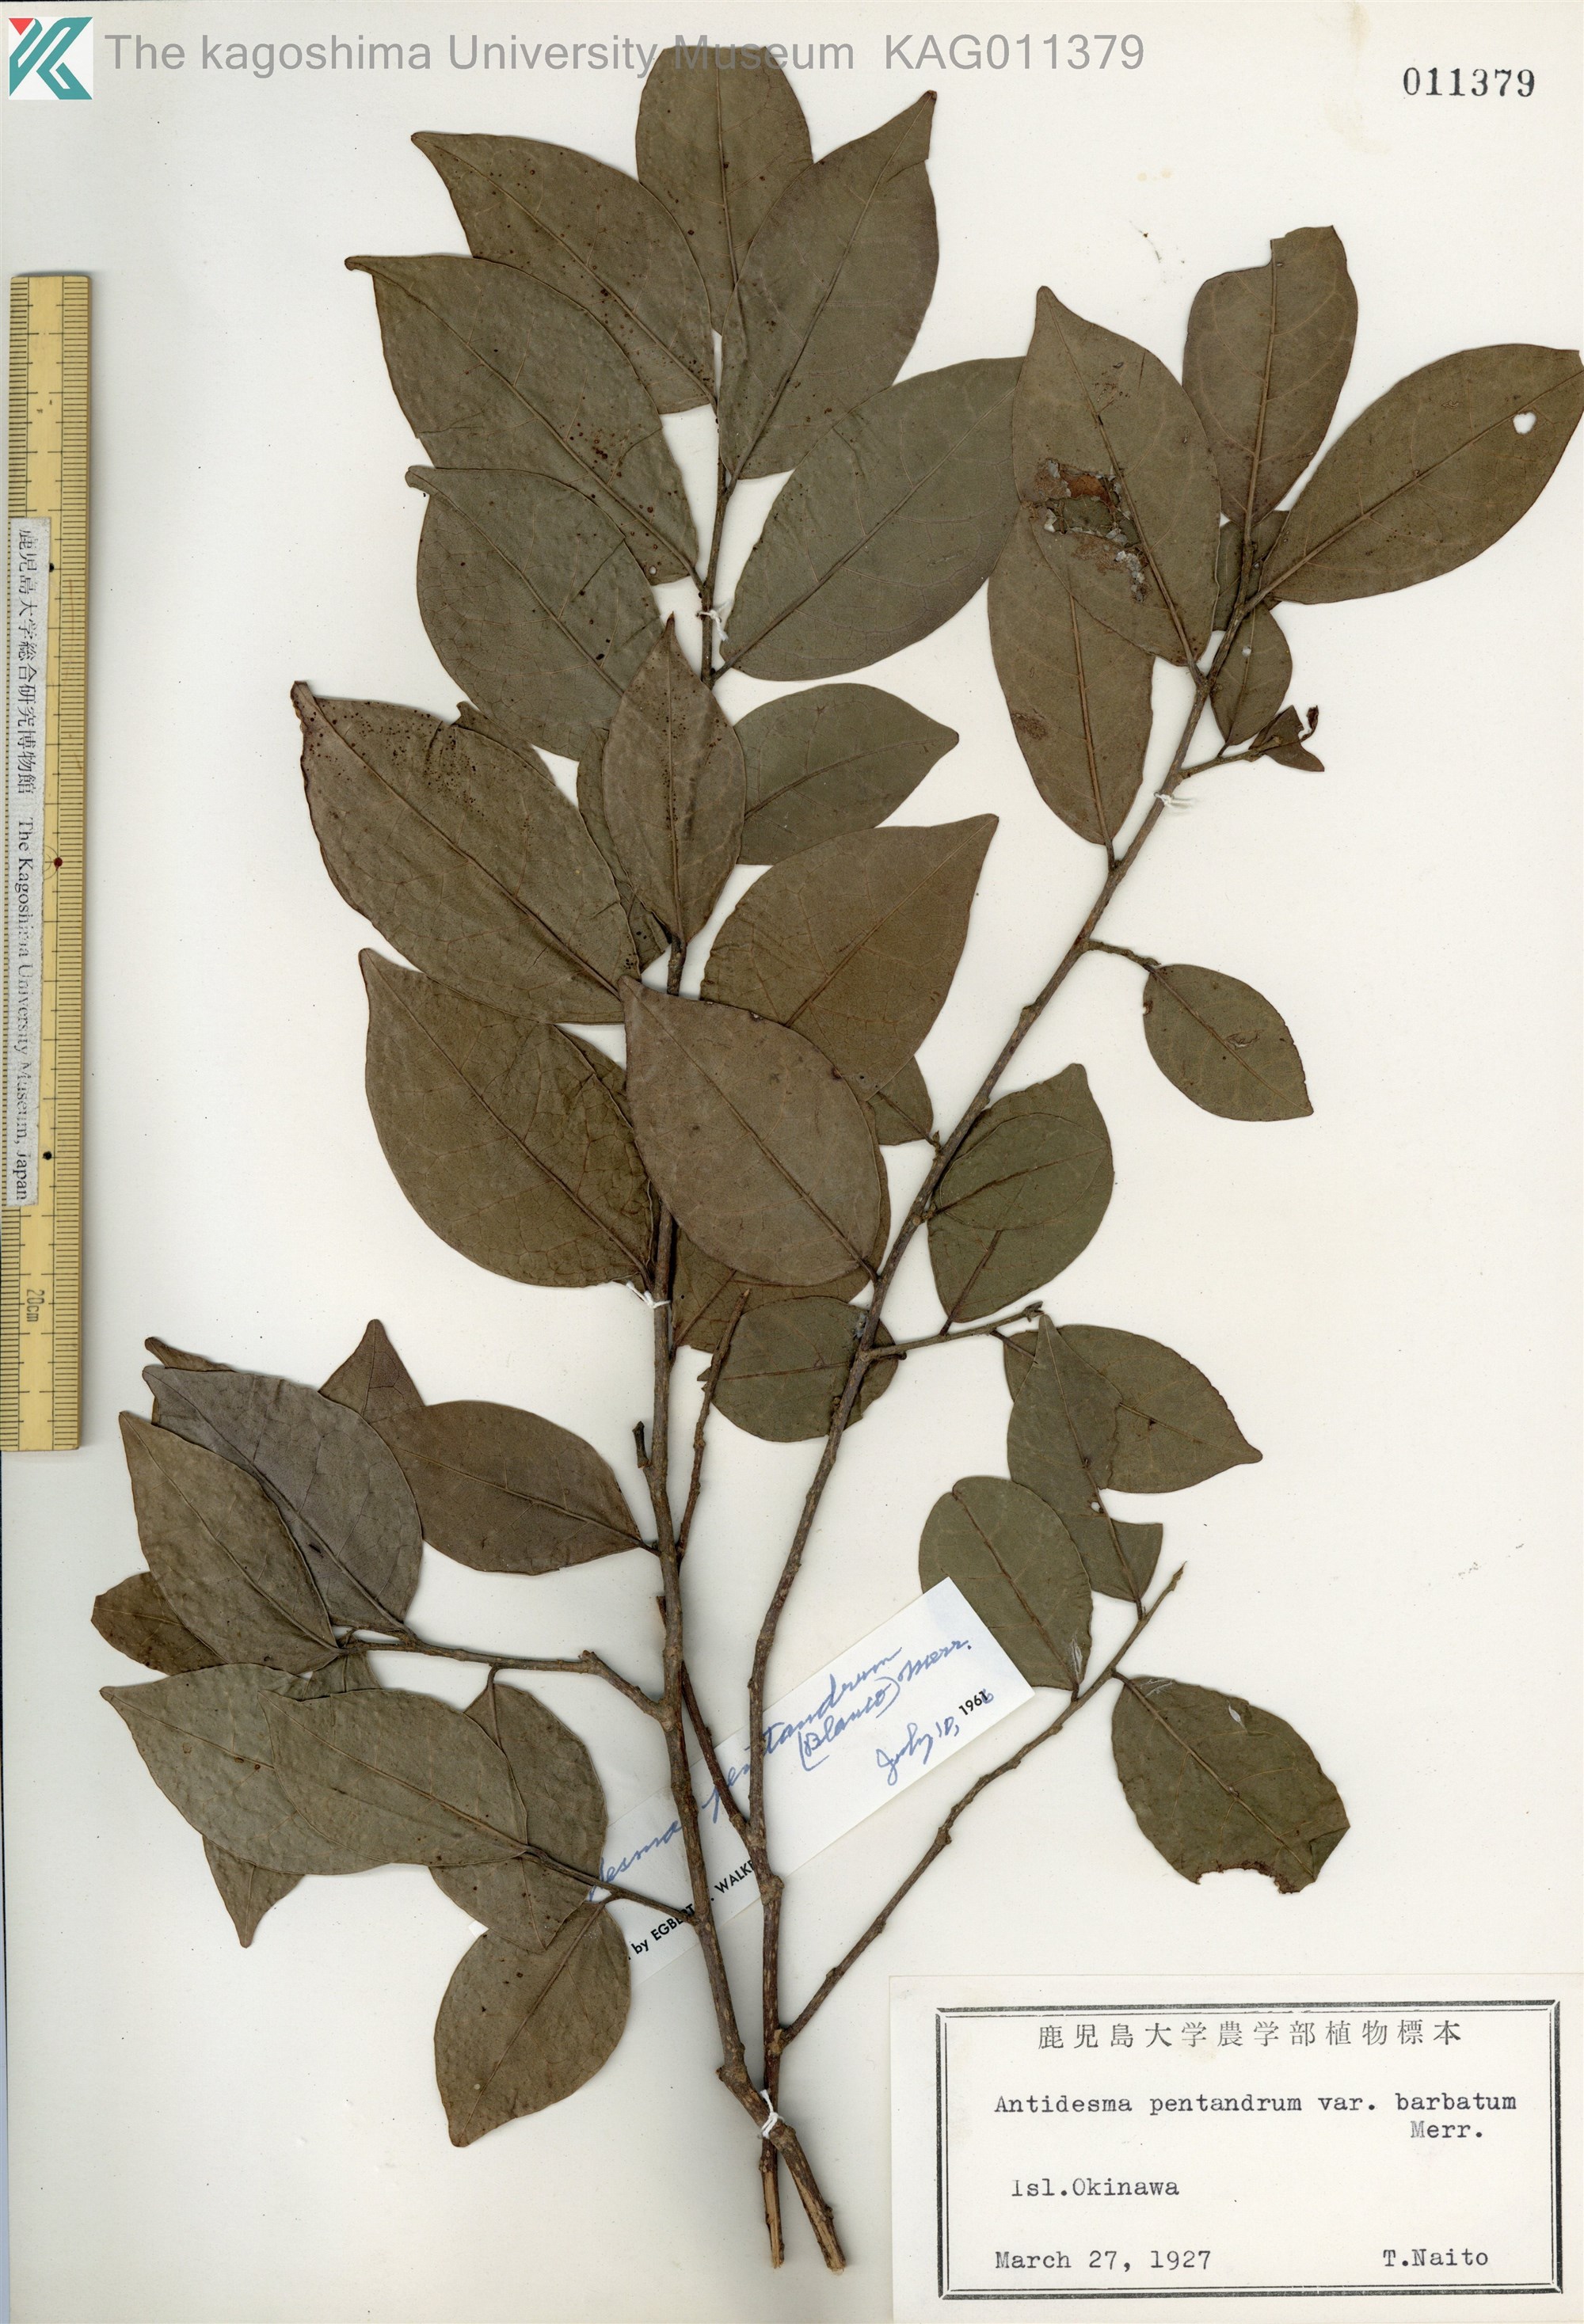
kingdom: Plantae
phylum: Tracheophyta
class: Magnoliopsida
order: Malpighiales
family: Phyllanthaceae
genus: Antidesma
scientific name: Antidesma montanum
